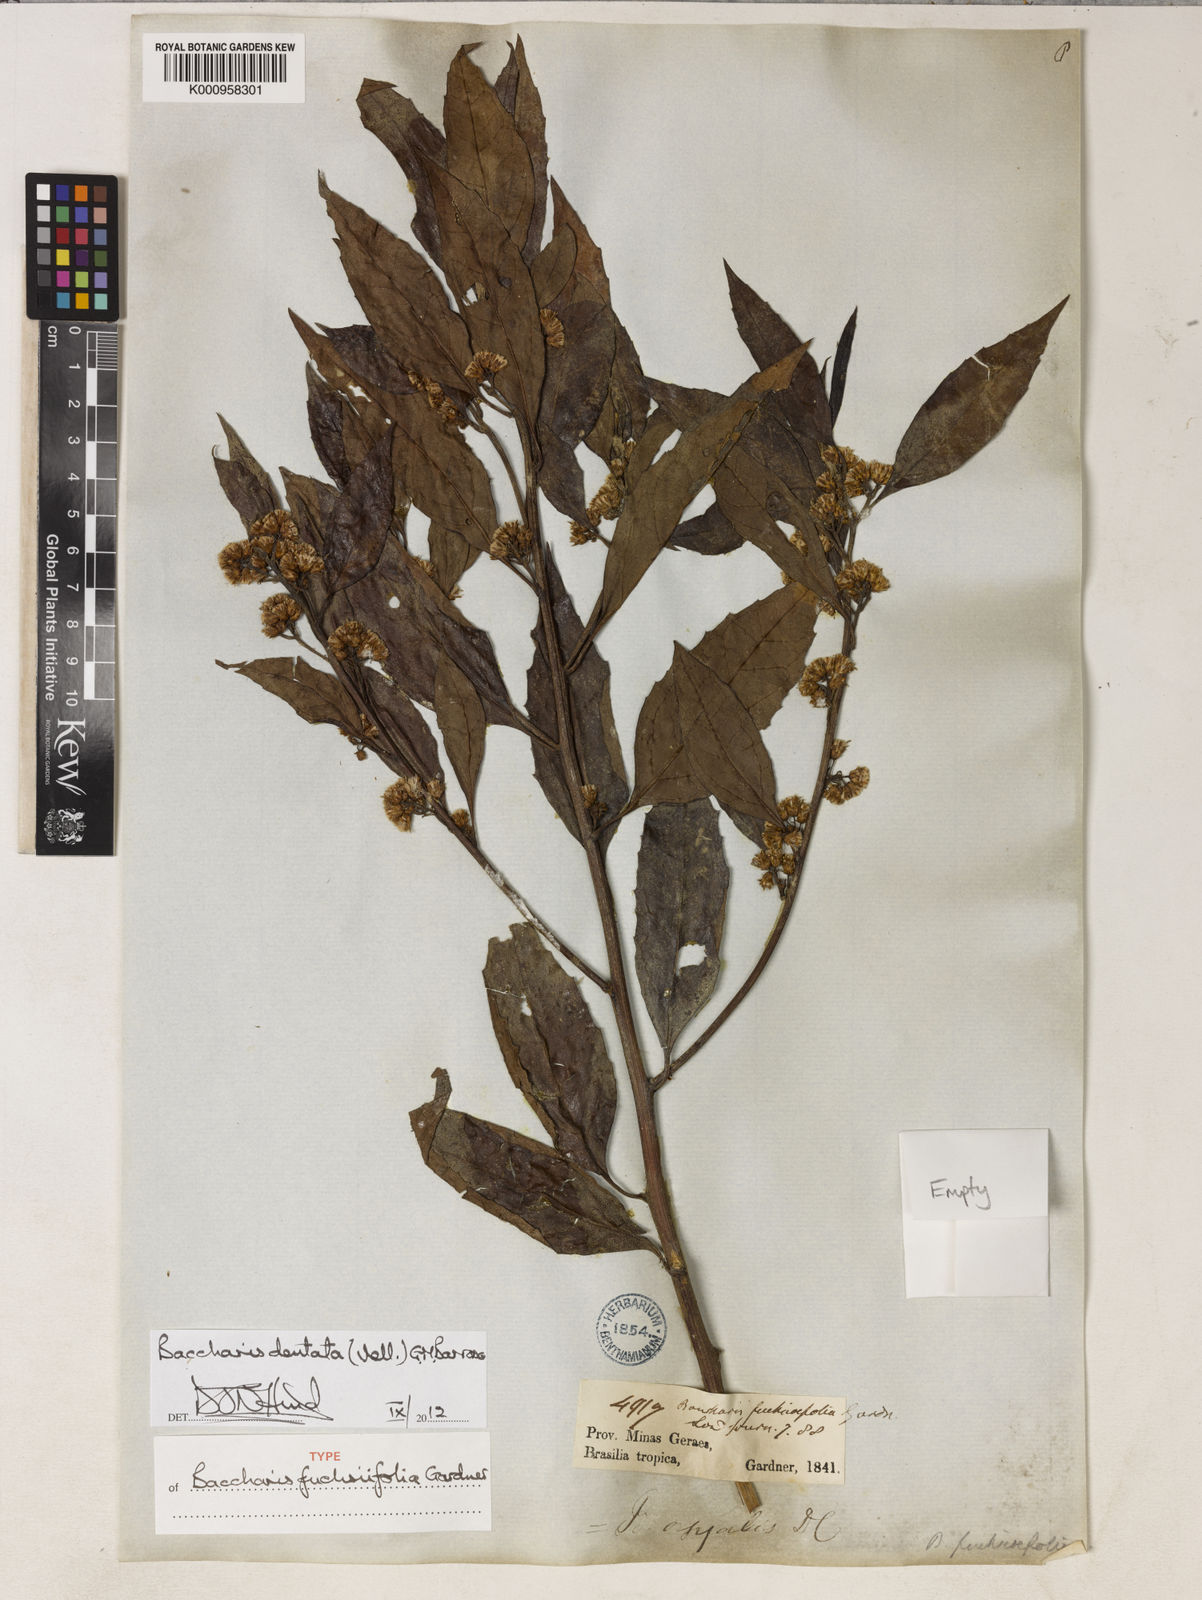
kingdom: Plantae
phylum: Tracheophyta
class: Magnoliopsida
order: Asterales
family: Asteraceae
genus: Baccharis
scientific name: Baccharis dentata
